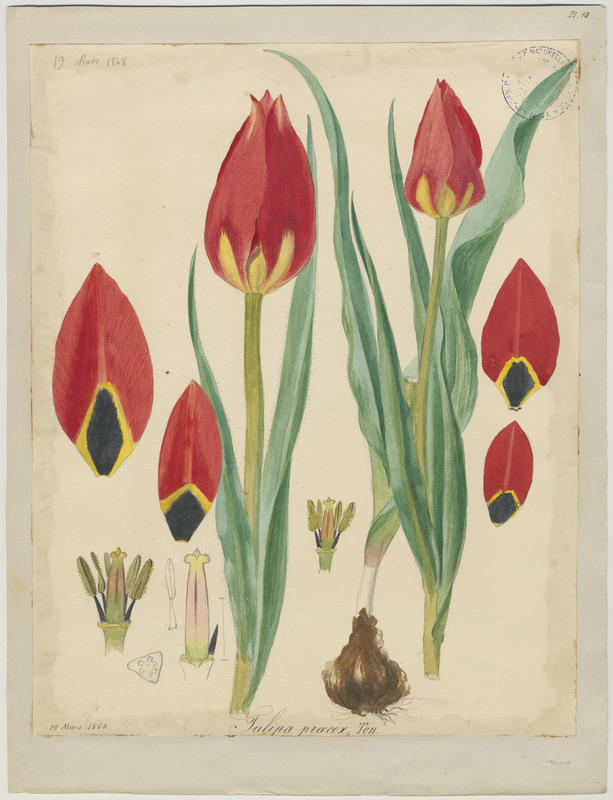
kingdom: Plantae
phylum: Tracheophyta
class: Liliopsida
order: Liliales
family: Liliaceae
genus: Tulipa
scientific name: Tulipa agenensis
